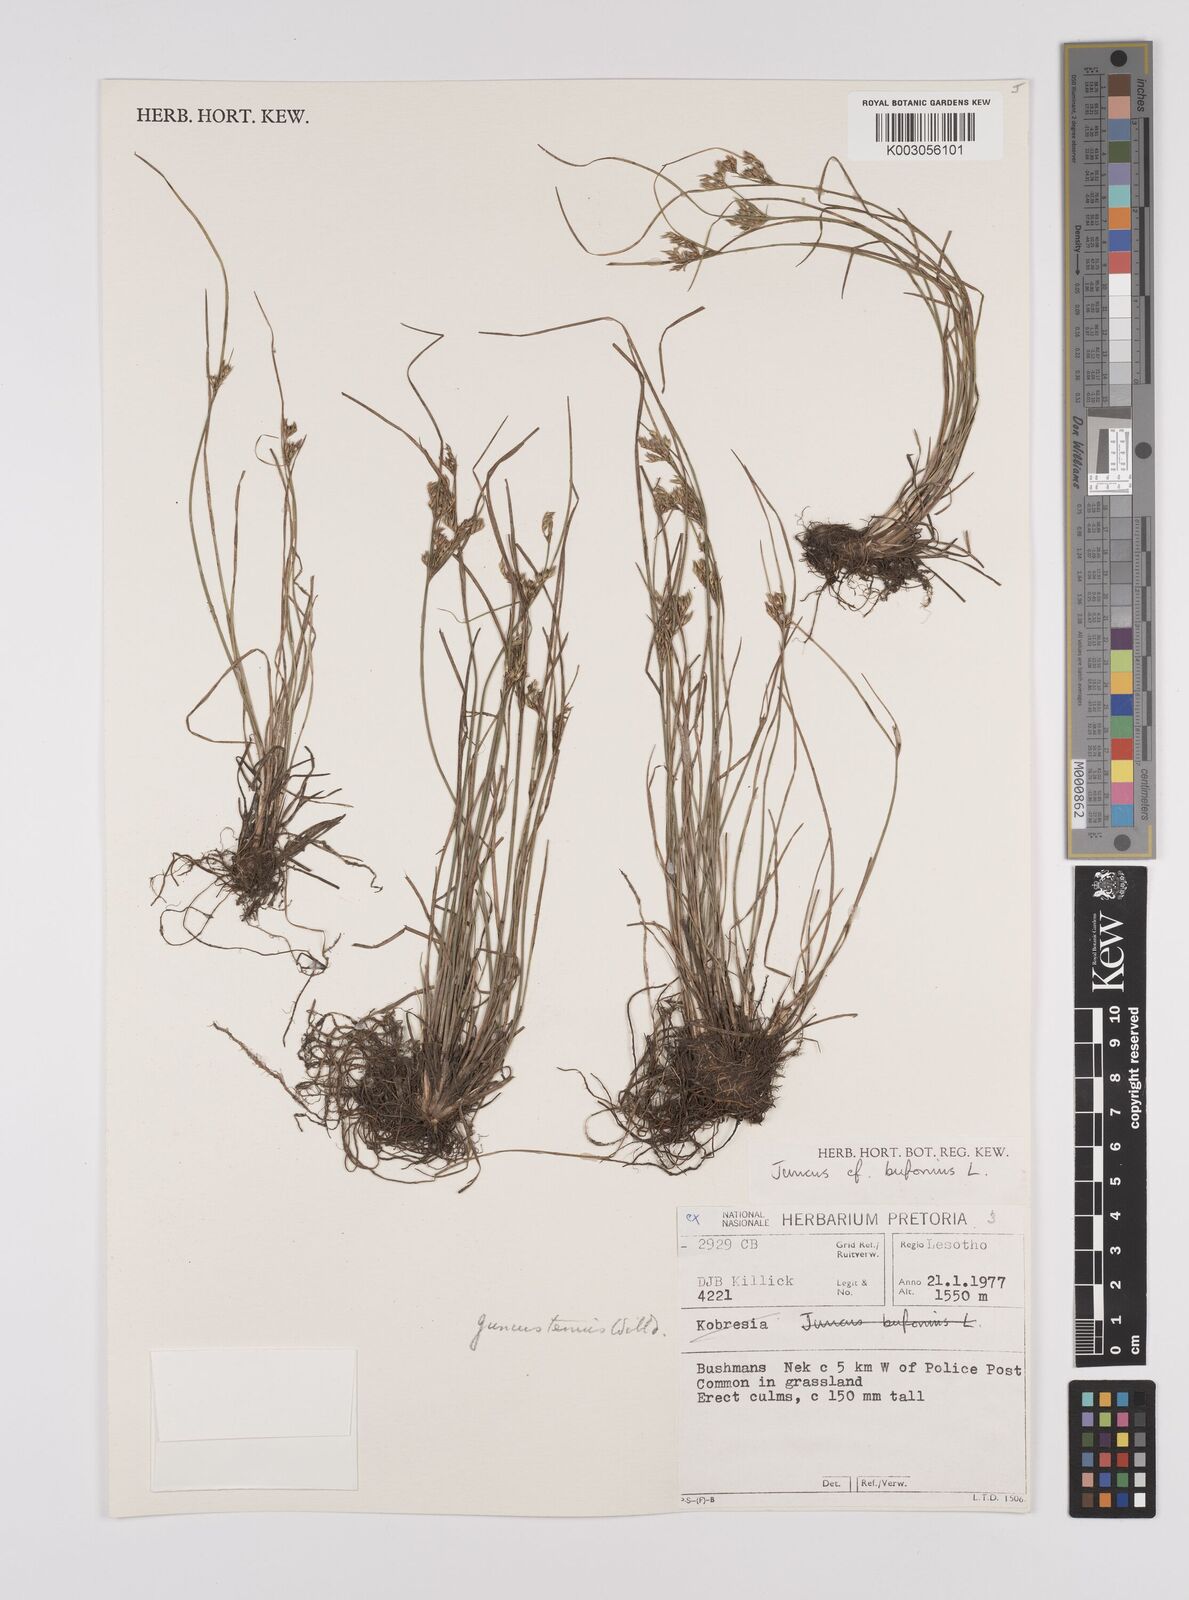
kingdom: Plantae
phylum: Tracheophyta
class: Liliopsida
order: Poales
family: Juncaceae
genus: Juncus
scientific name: Juncus tenuis
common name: Slender rush
